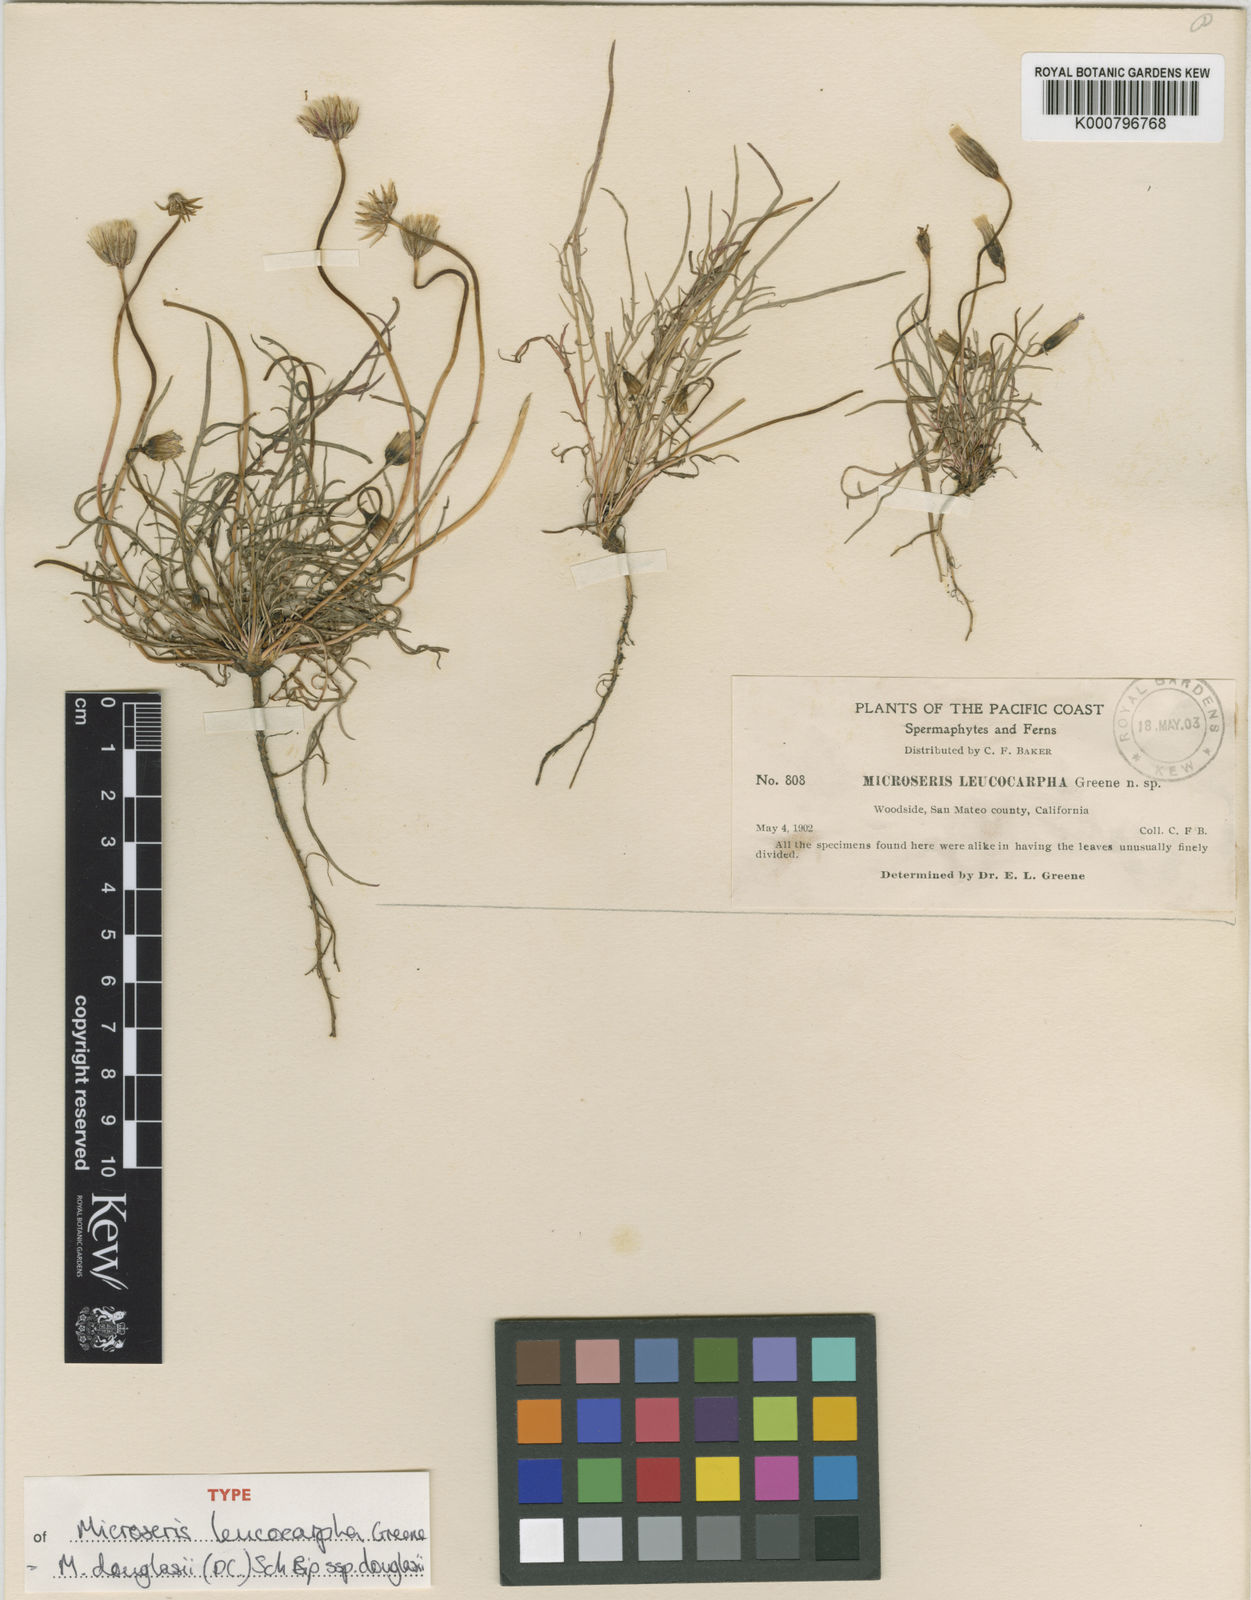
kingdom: Plantae
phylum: Tracheophyta
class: Magnoliopsida
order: Asterales
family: Asteraceae
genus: Microseris
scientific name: Microseris douglasii
